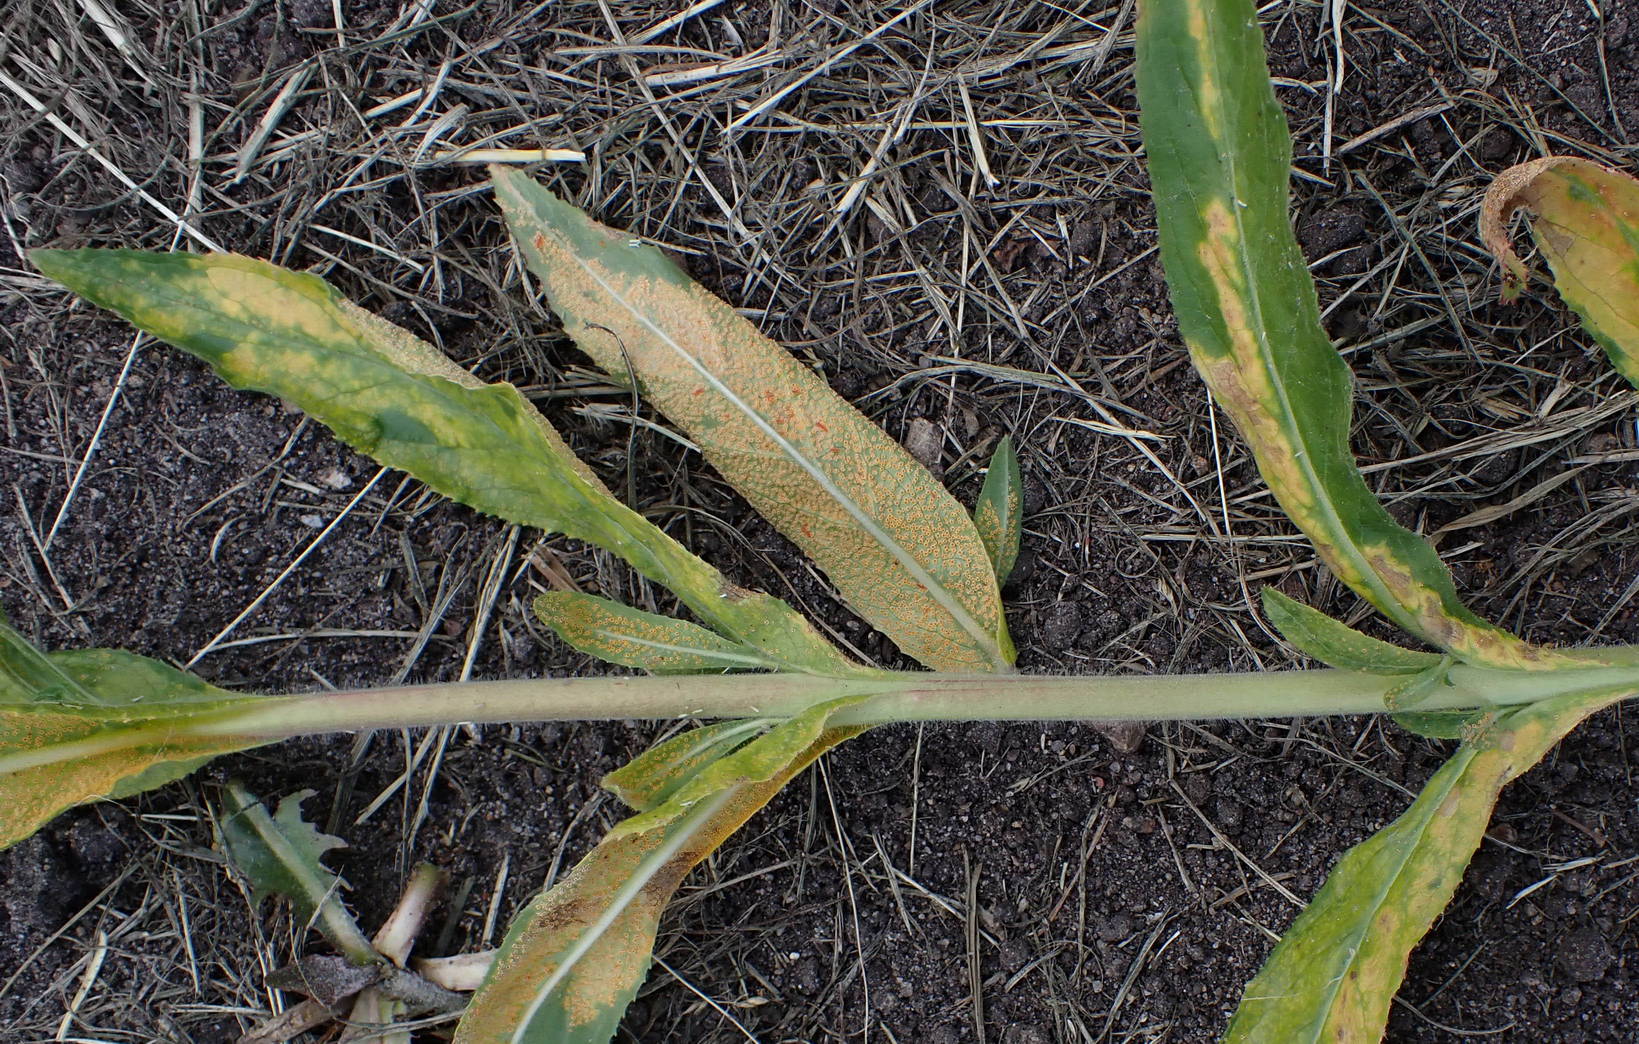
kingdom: Fungi
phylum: Basidiomycota
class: Pucciniomycetes
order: Pucciniales
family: Pucciniaceae
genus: Puccinia
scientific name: Puccinia pulverulenta
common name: dueurt-tvecellerust
